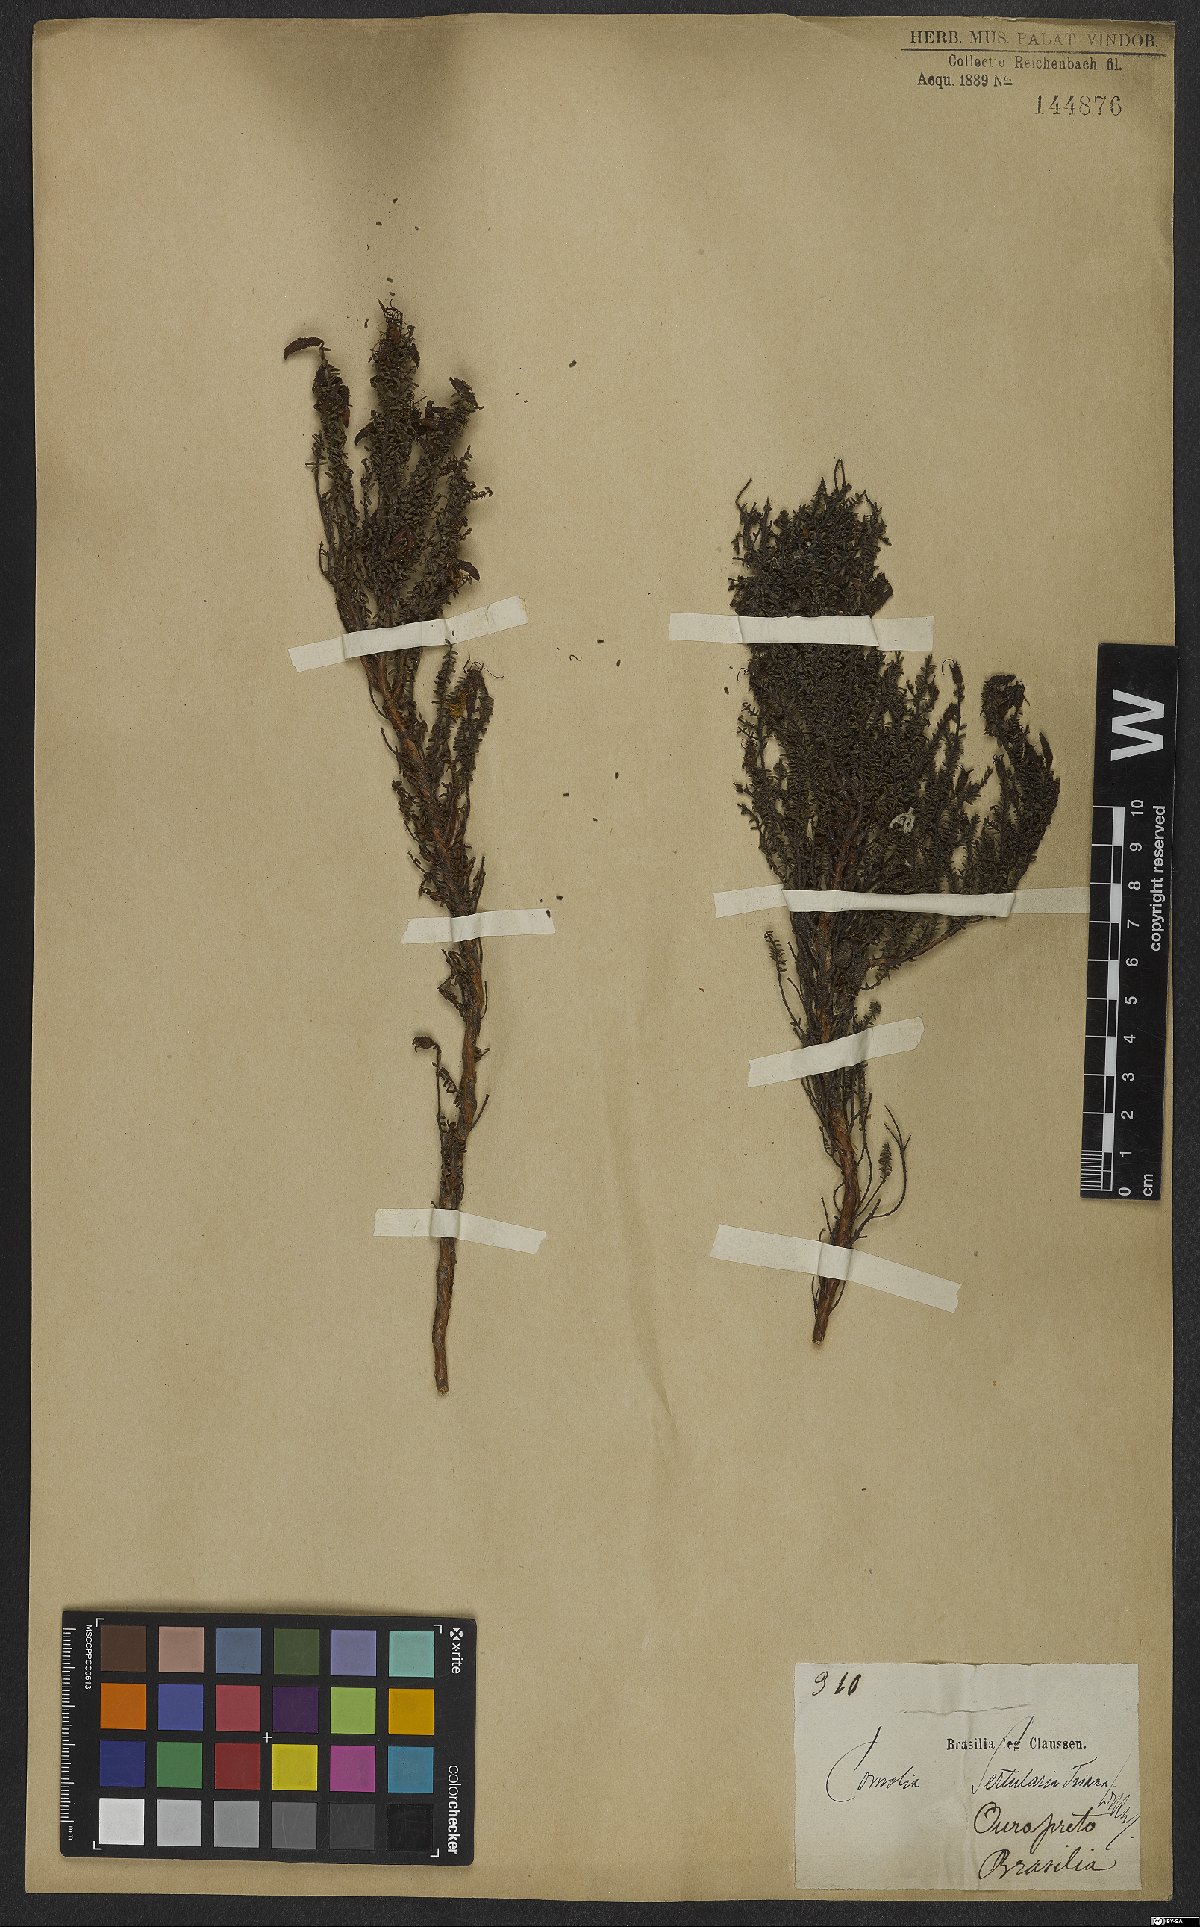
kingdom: Plantae
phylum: Tracheophyta
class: Magnoliopsida
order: Myrtales
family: Melastomataceae
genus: Fritzschia
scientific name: Fritzschia sertularia
